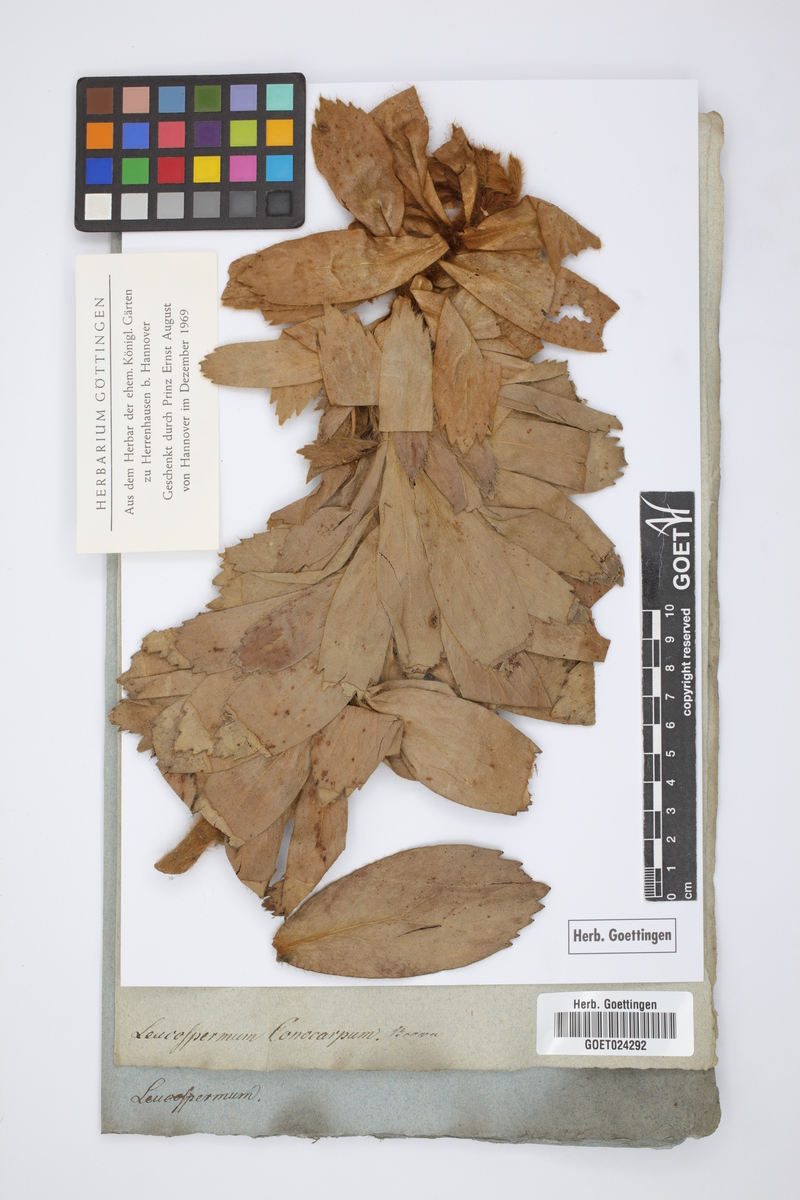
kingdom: Plantae
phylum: Tracheophyta
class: Magnoliopsida
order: Proteales
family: Proteaceae
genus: Leucospermum
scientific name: Leucospermum conocarpodendron
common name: Tree pincushion
